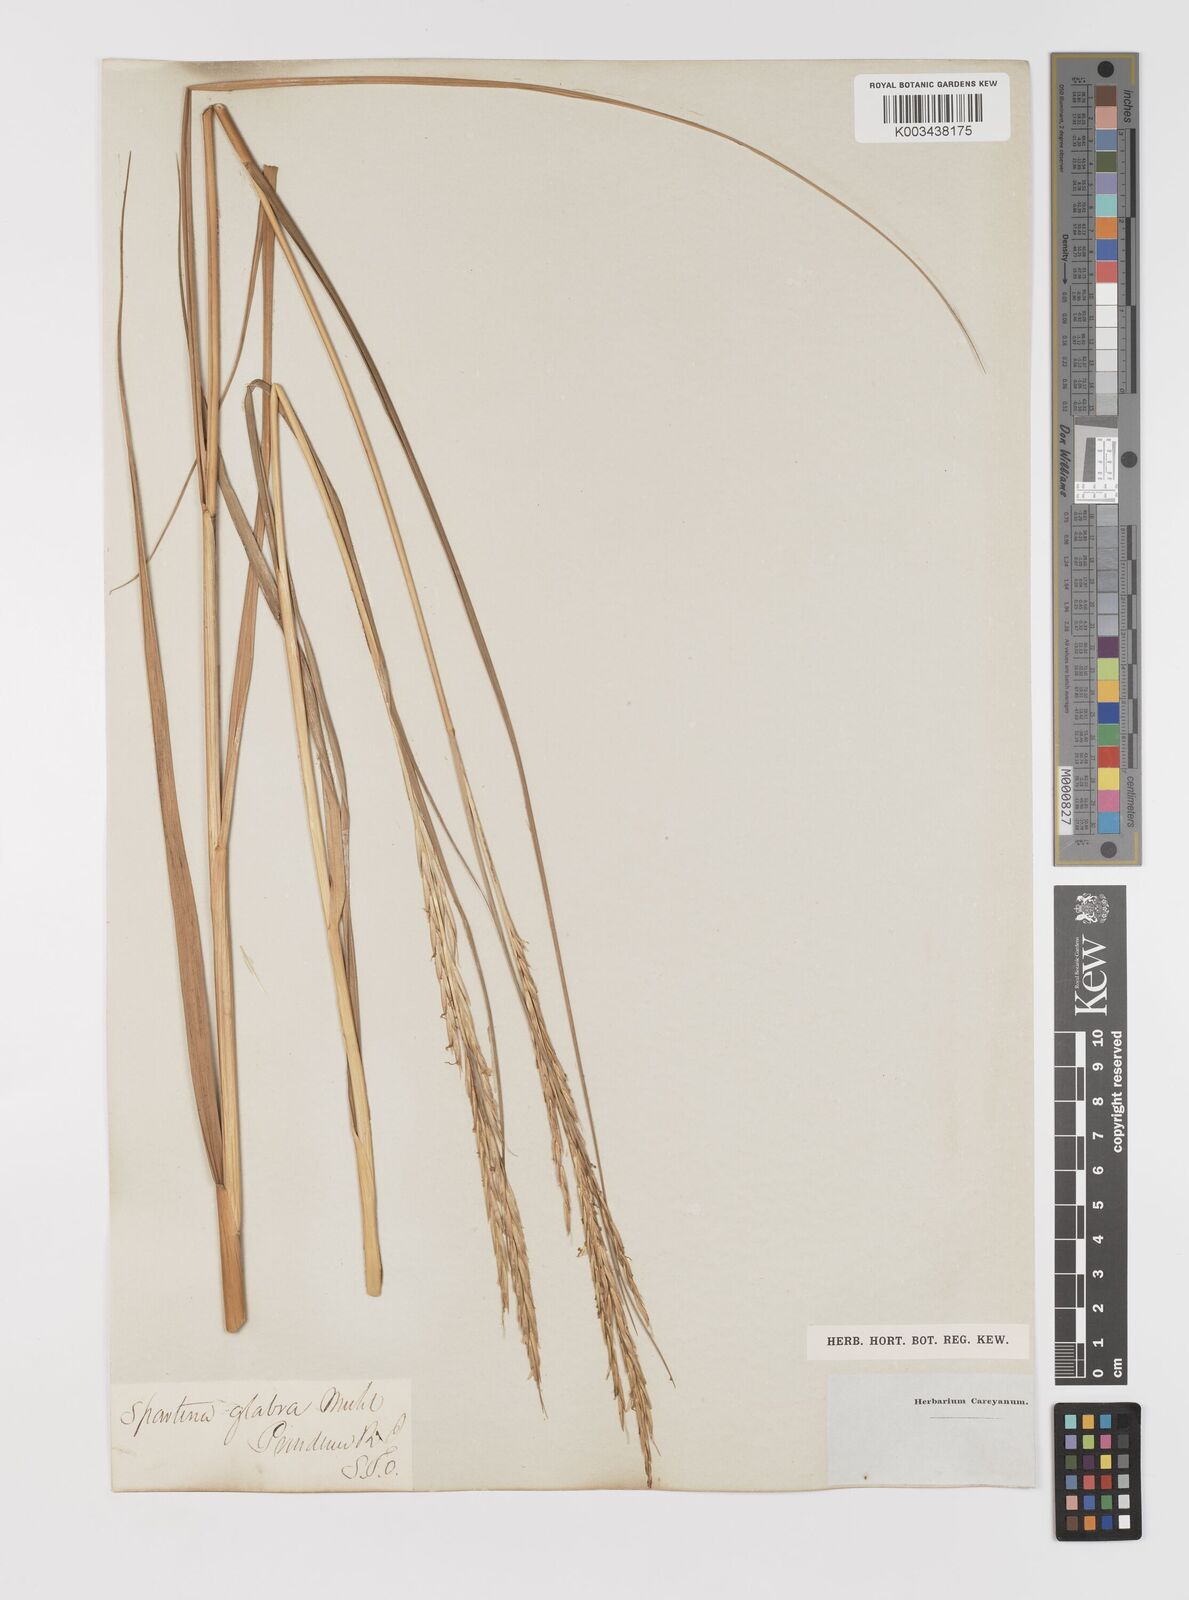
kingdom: Animalia
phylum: Mollusca
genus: Spartina
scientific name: Spartina
